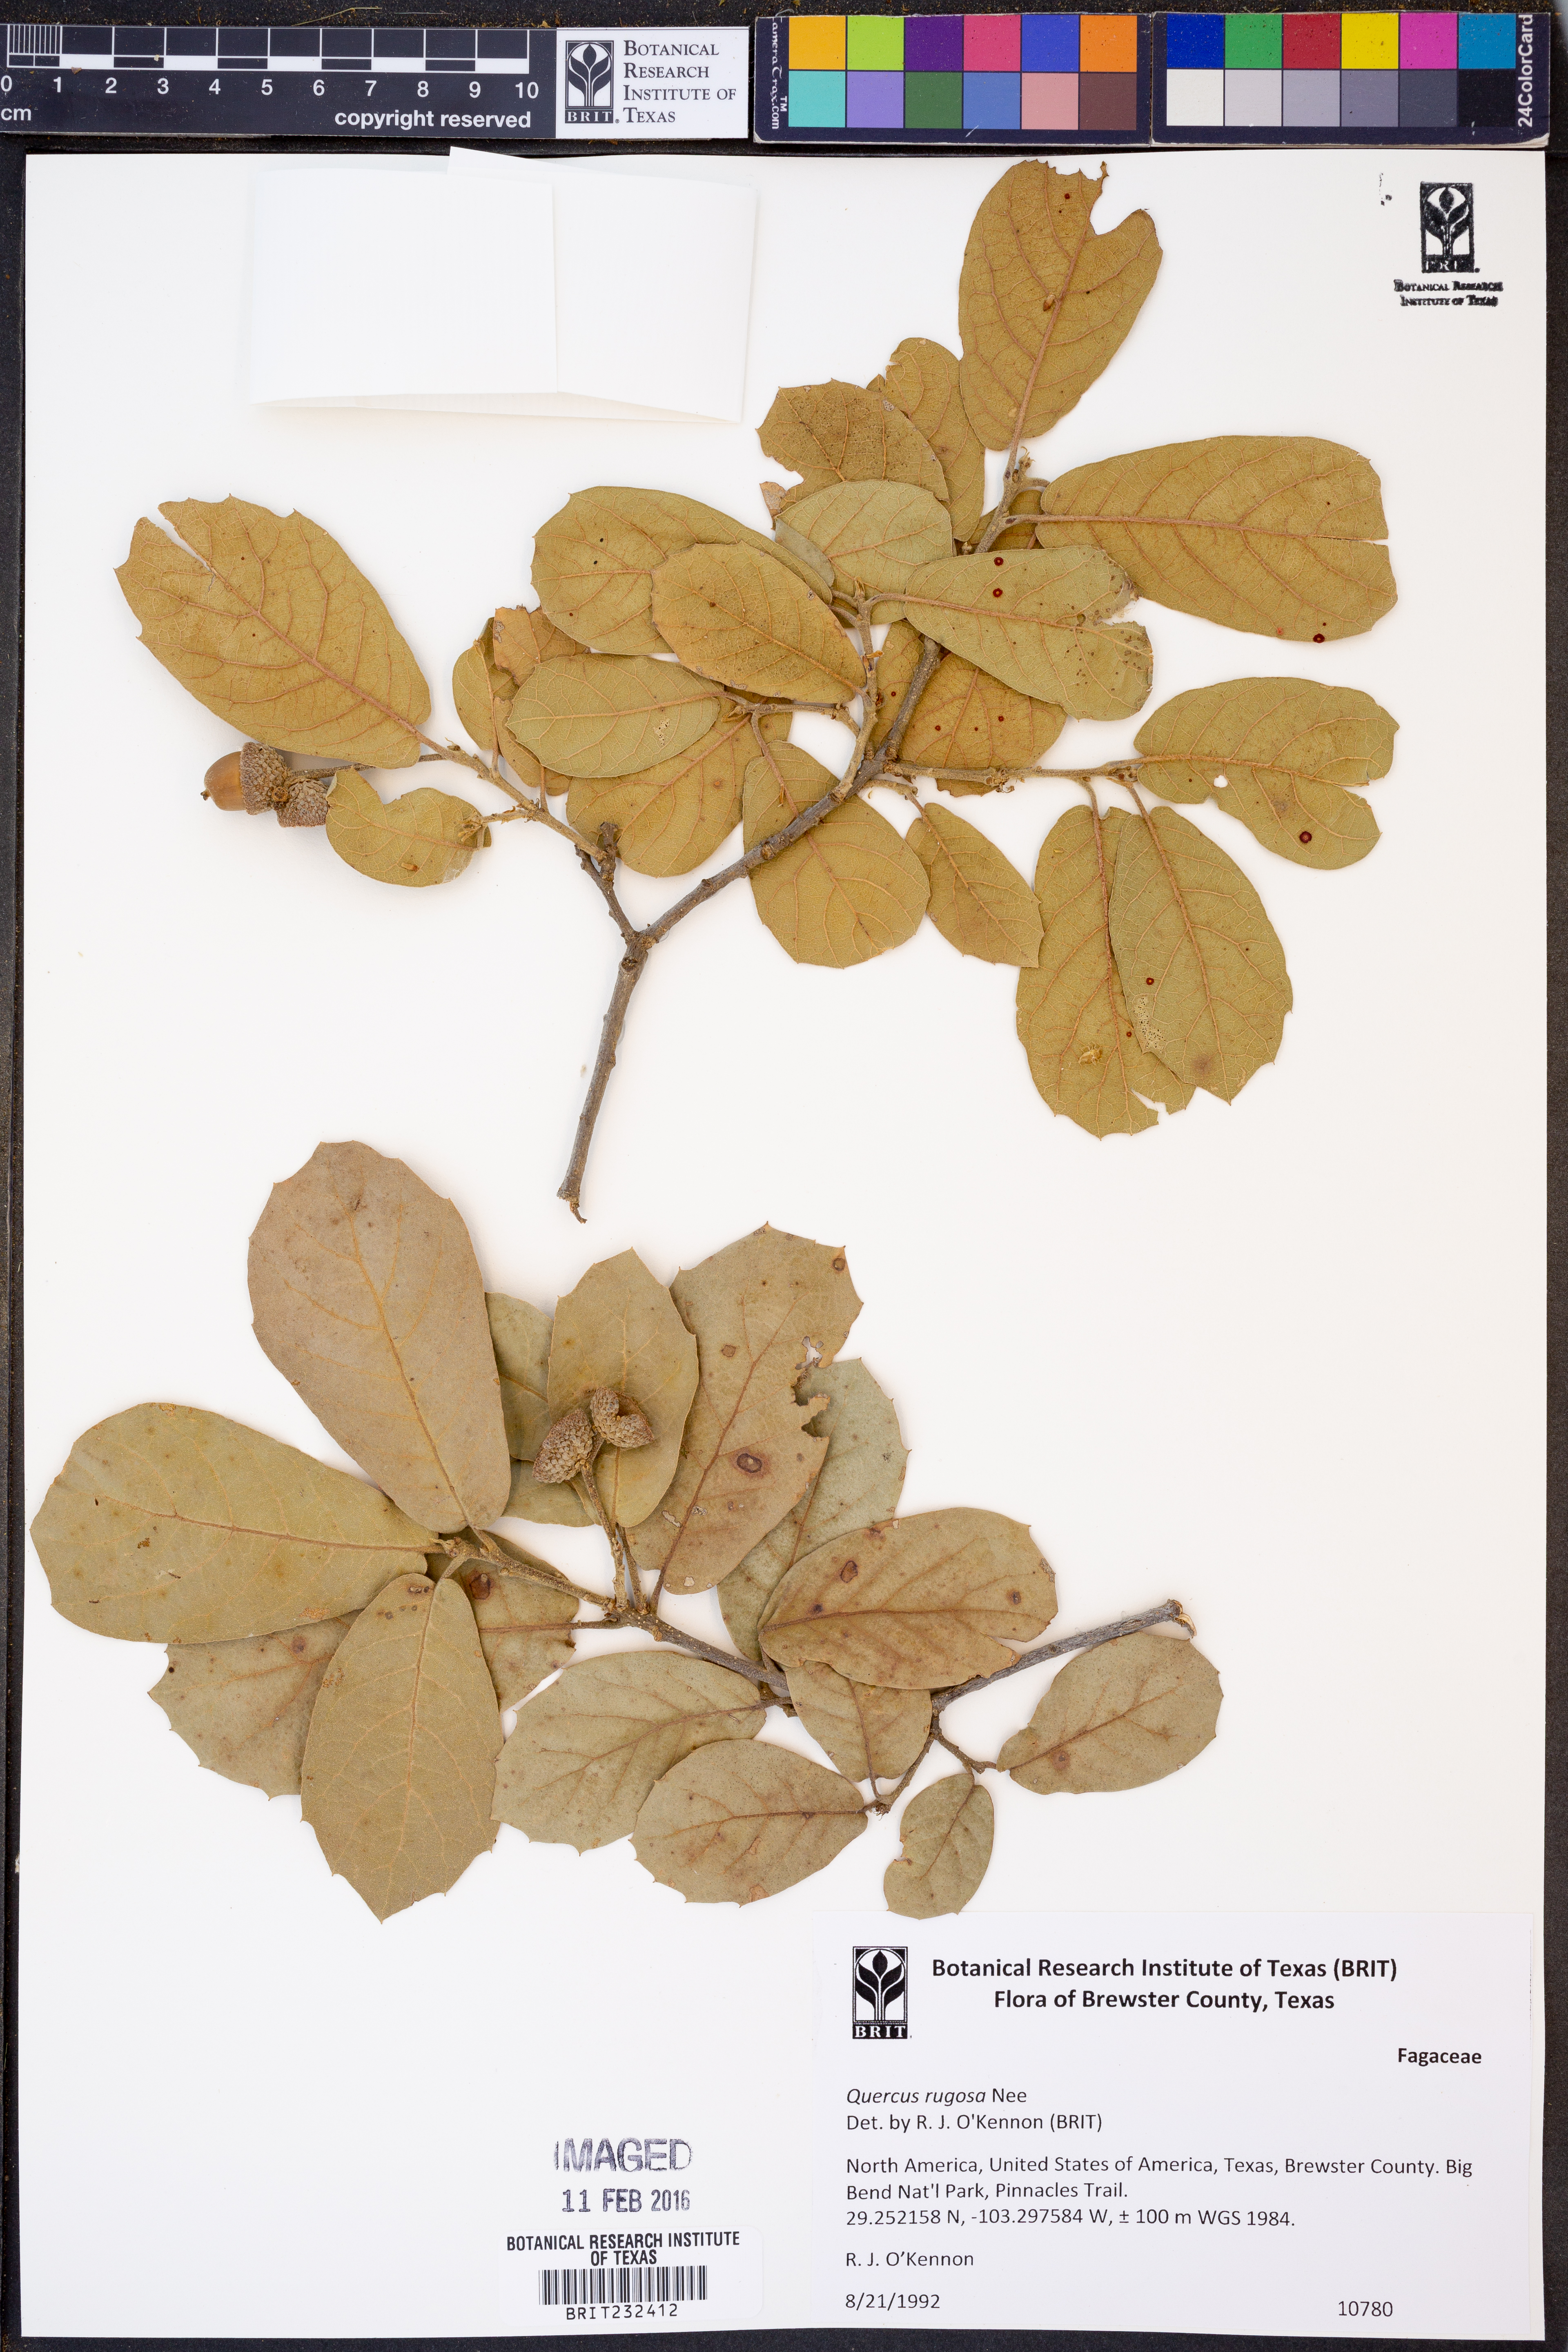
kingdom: Plantae
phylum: Tracheophyta
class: Magnoliopsida
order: Fagales
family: Fagaceae
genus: Quercus
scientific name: Quercus rugosa
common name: Netleaf oak
